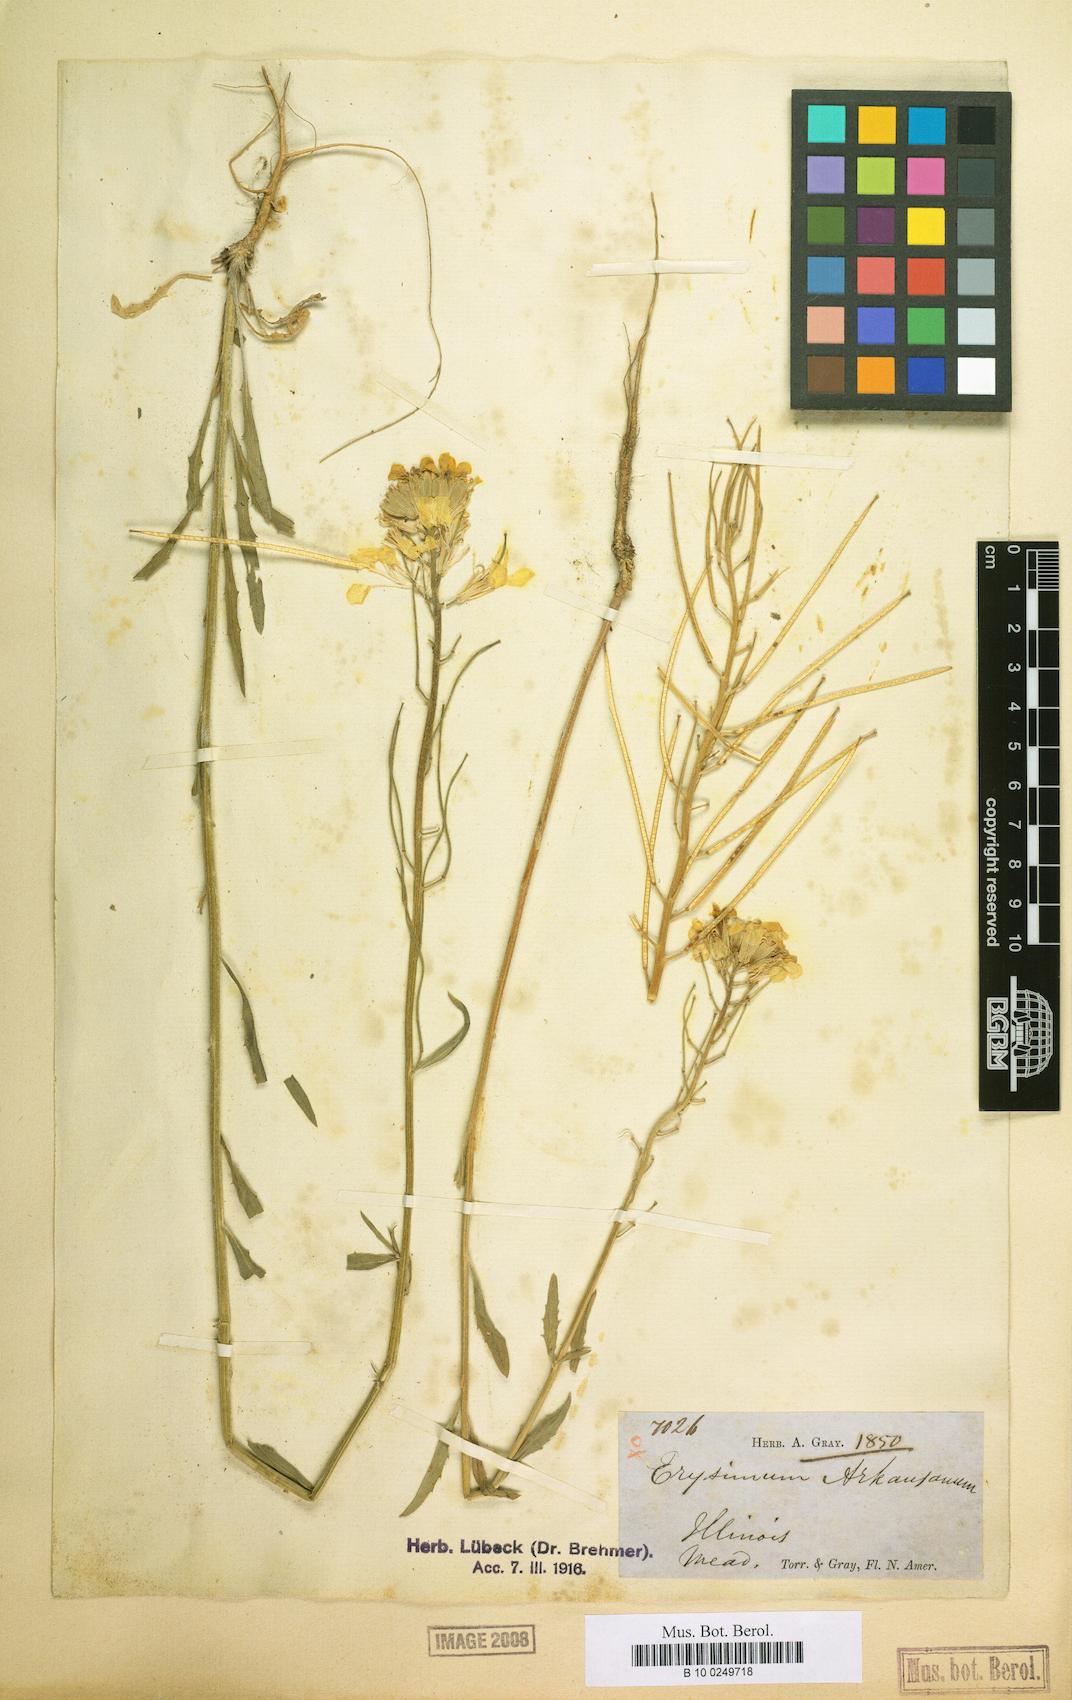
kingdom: Plantae
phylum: Tracheophyta
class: Magnoliopsida
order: Brassicales
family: Brassicaceae
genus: Erysimum
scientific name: Erysimum capitatum
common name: Western wallflower
